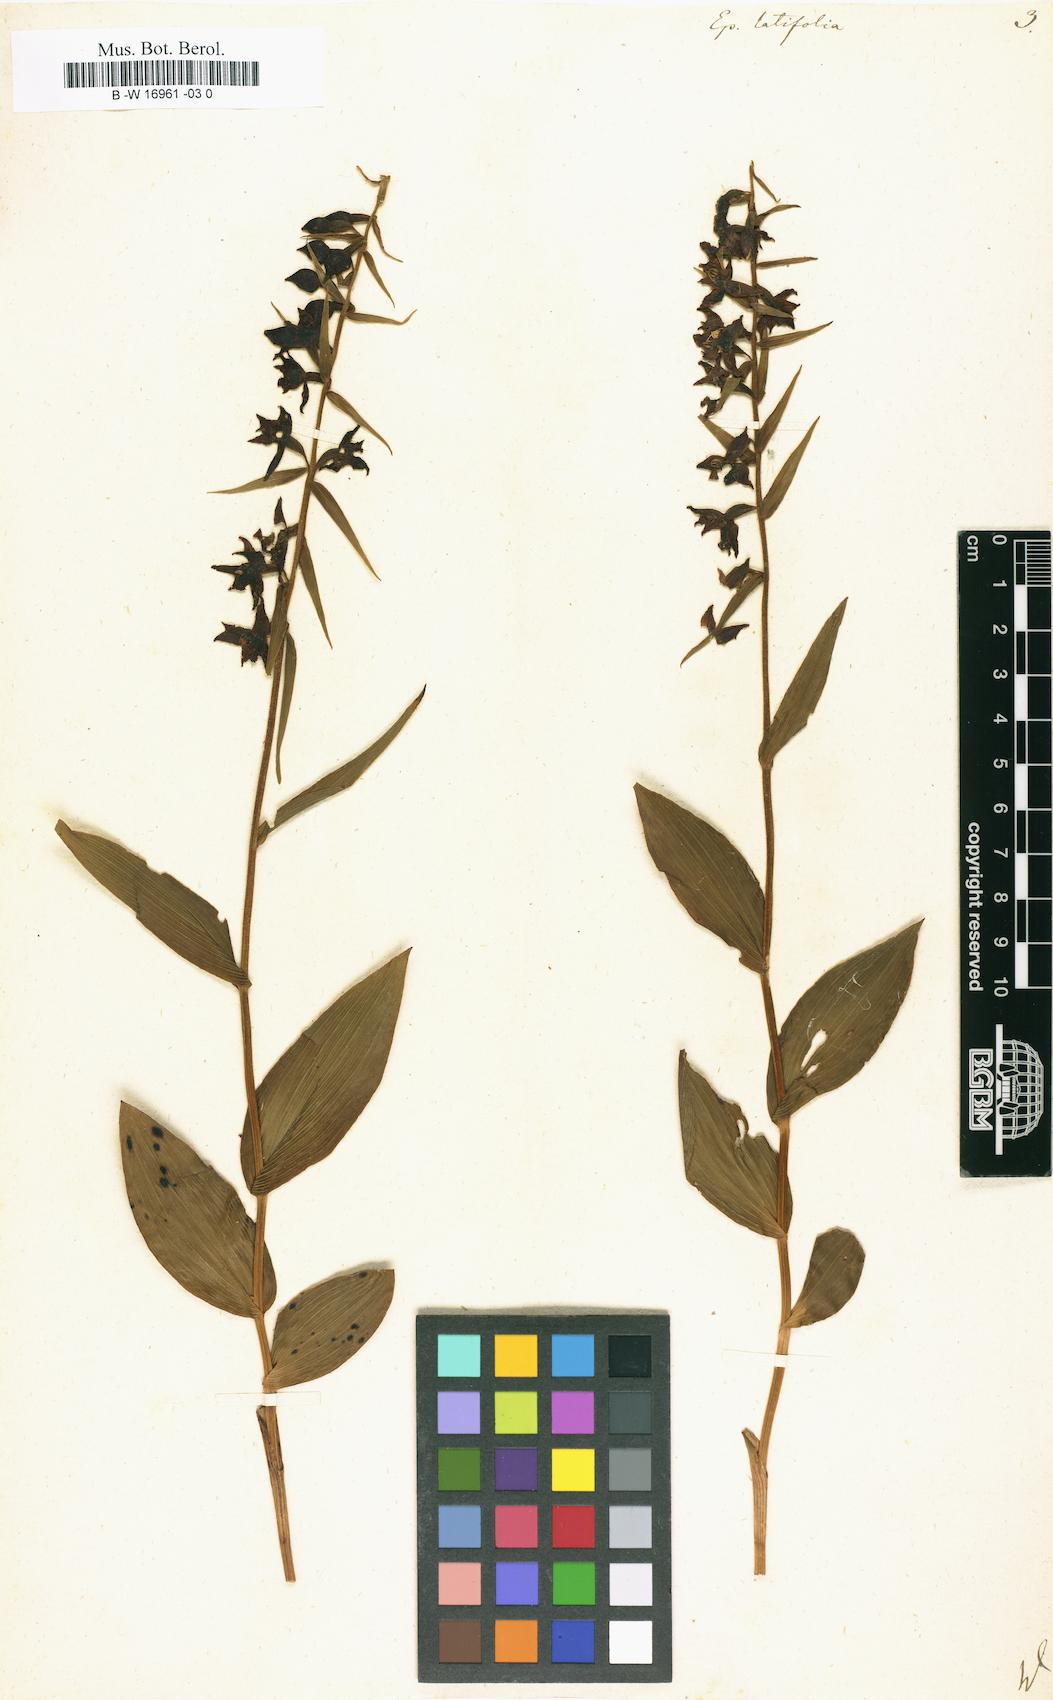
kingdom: Plantae
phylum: Tracheophyta
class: Liliopsida
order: Asparagales
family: Orchidaceae
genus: Epipactis
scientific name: Epipactis helleborine
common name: Broad-leaved helleborine
